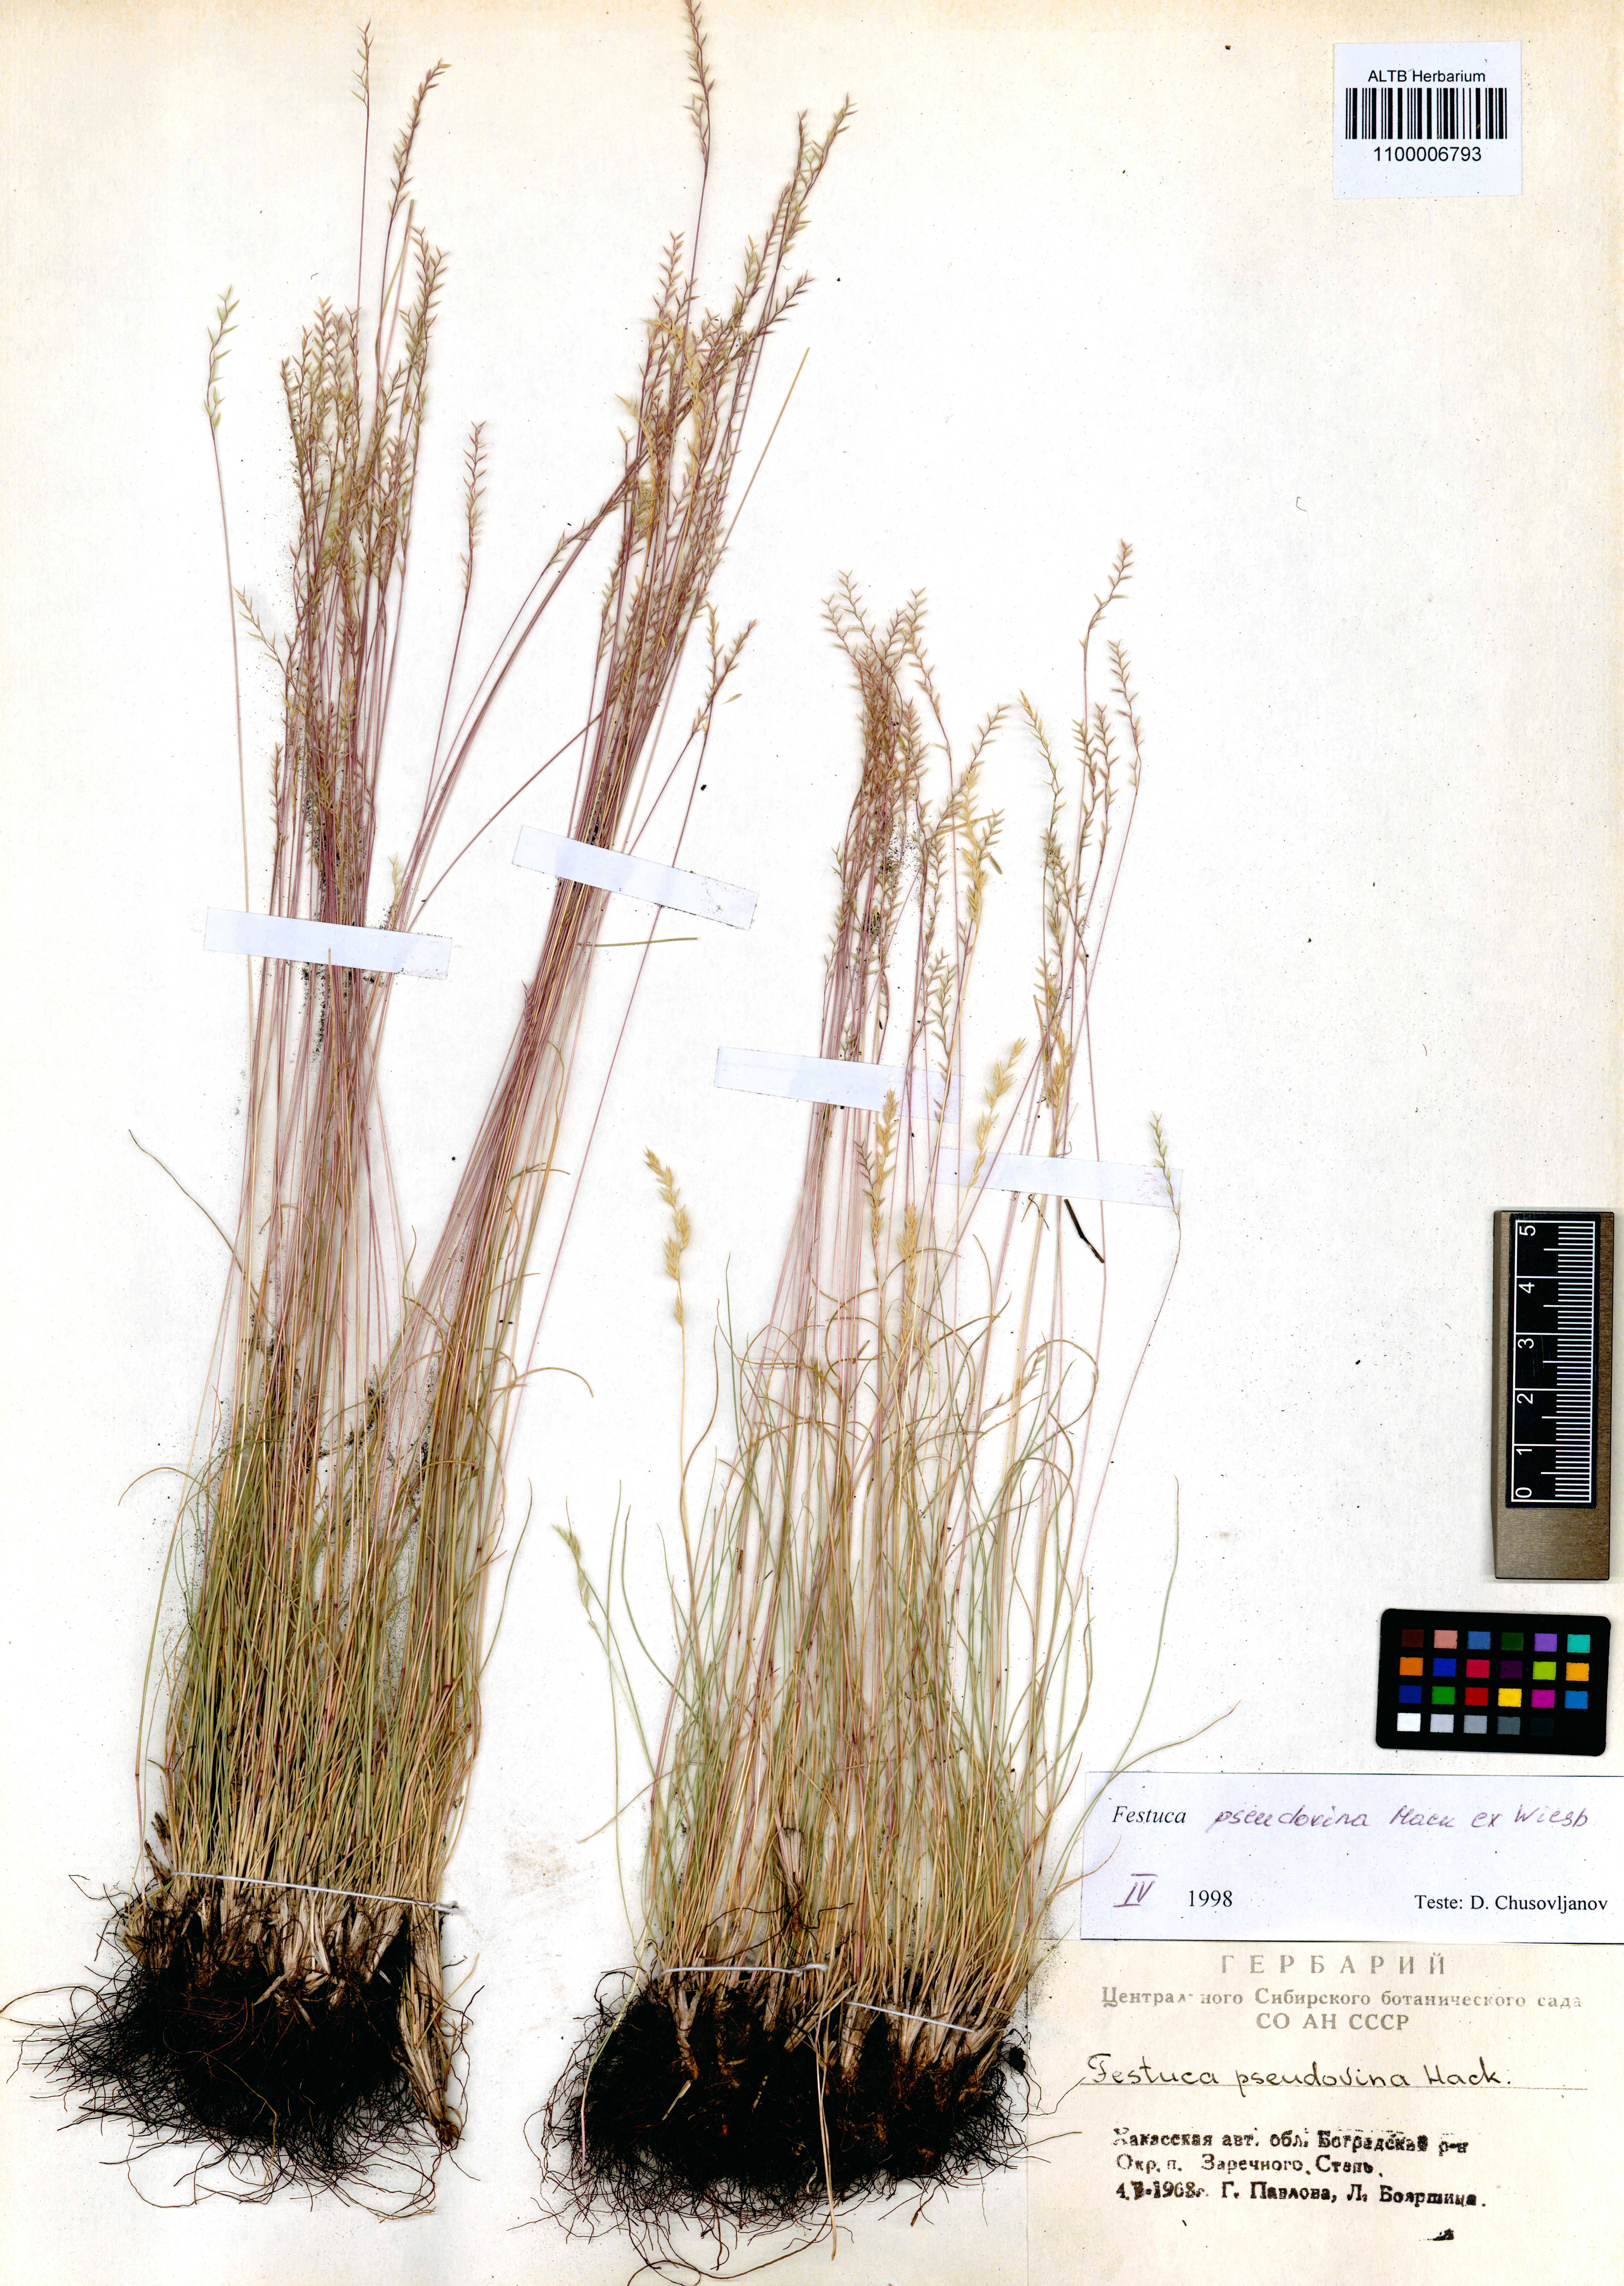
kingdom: Plantae
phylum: Tracheophyta
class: Liliopsida
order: Poales
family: Poaceae
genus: Festuca
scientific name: Festuca pulchra
